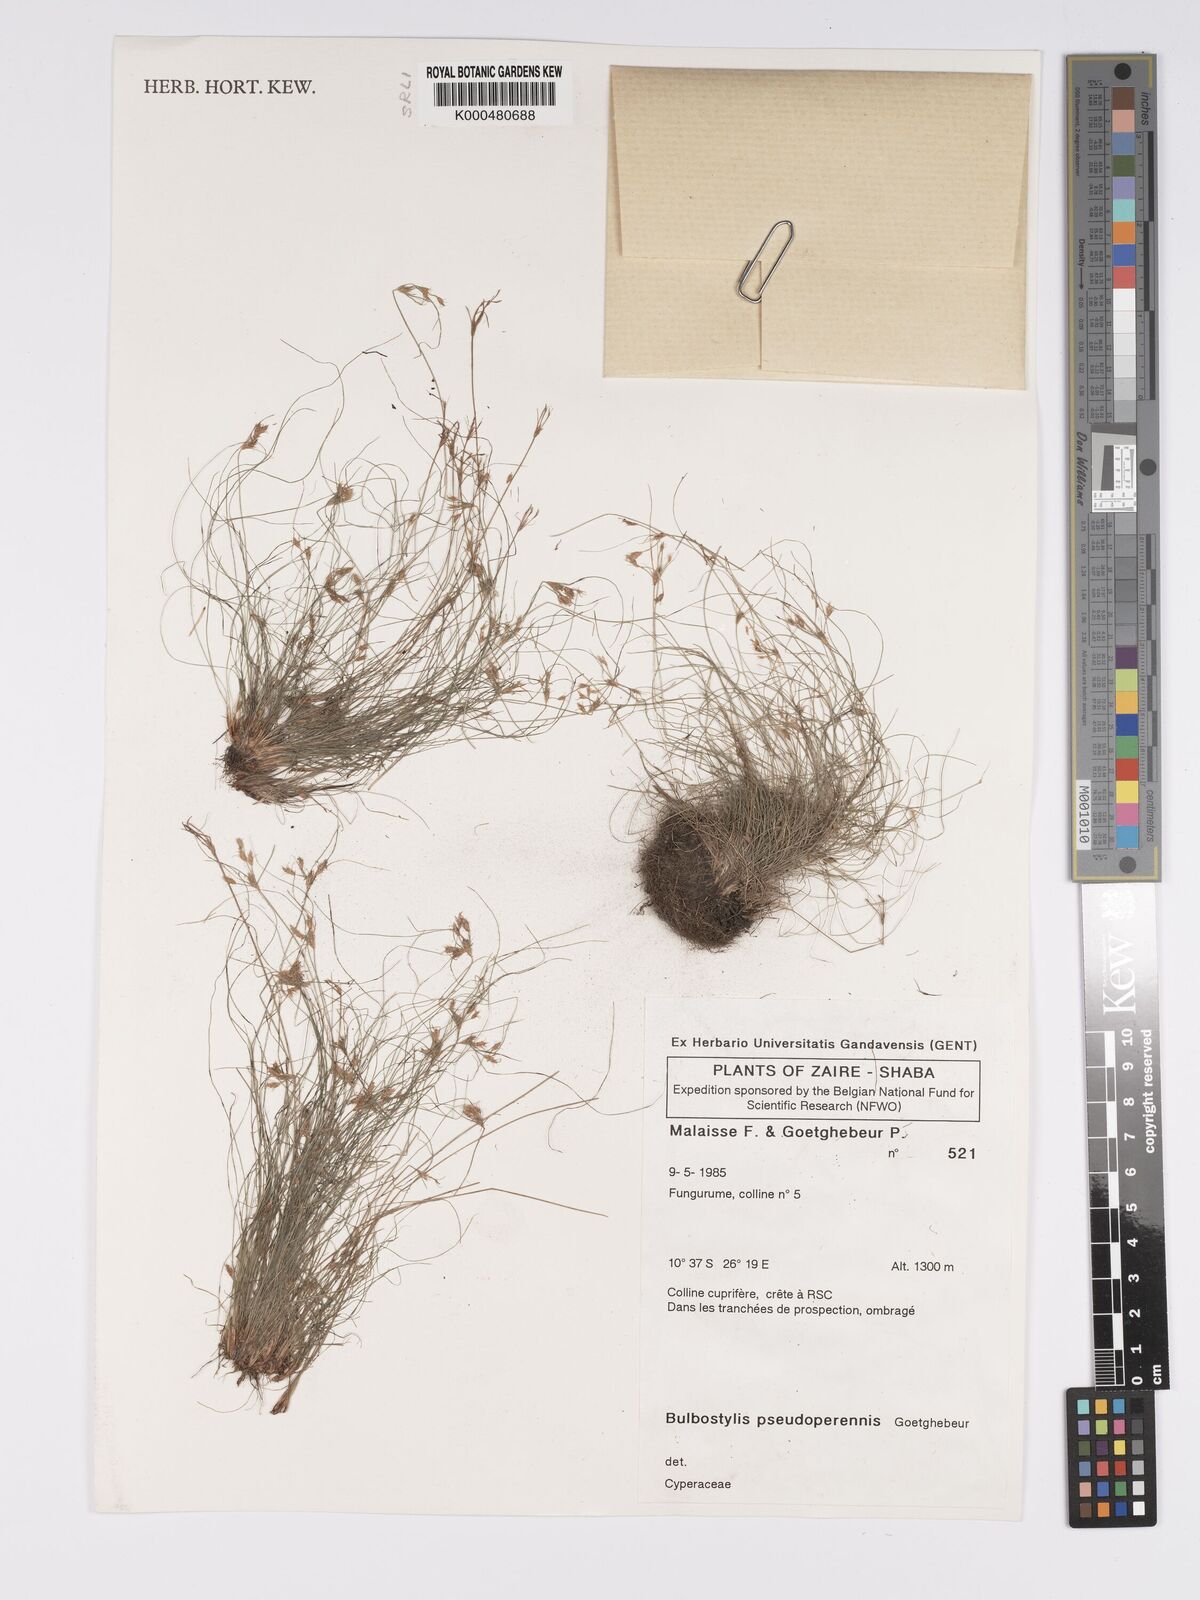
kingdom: Plantae
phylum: Tracheophyta
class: Liliopsida
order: Poales
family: Cyperaceae
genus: Bulbostylis
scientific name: Bulbostylis abbreviata
